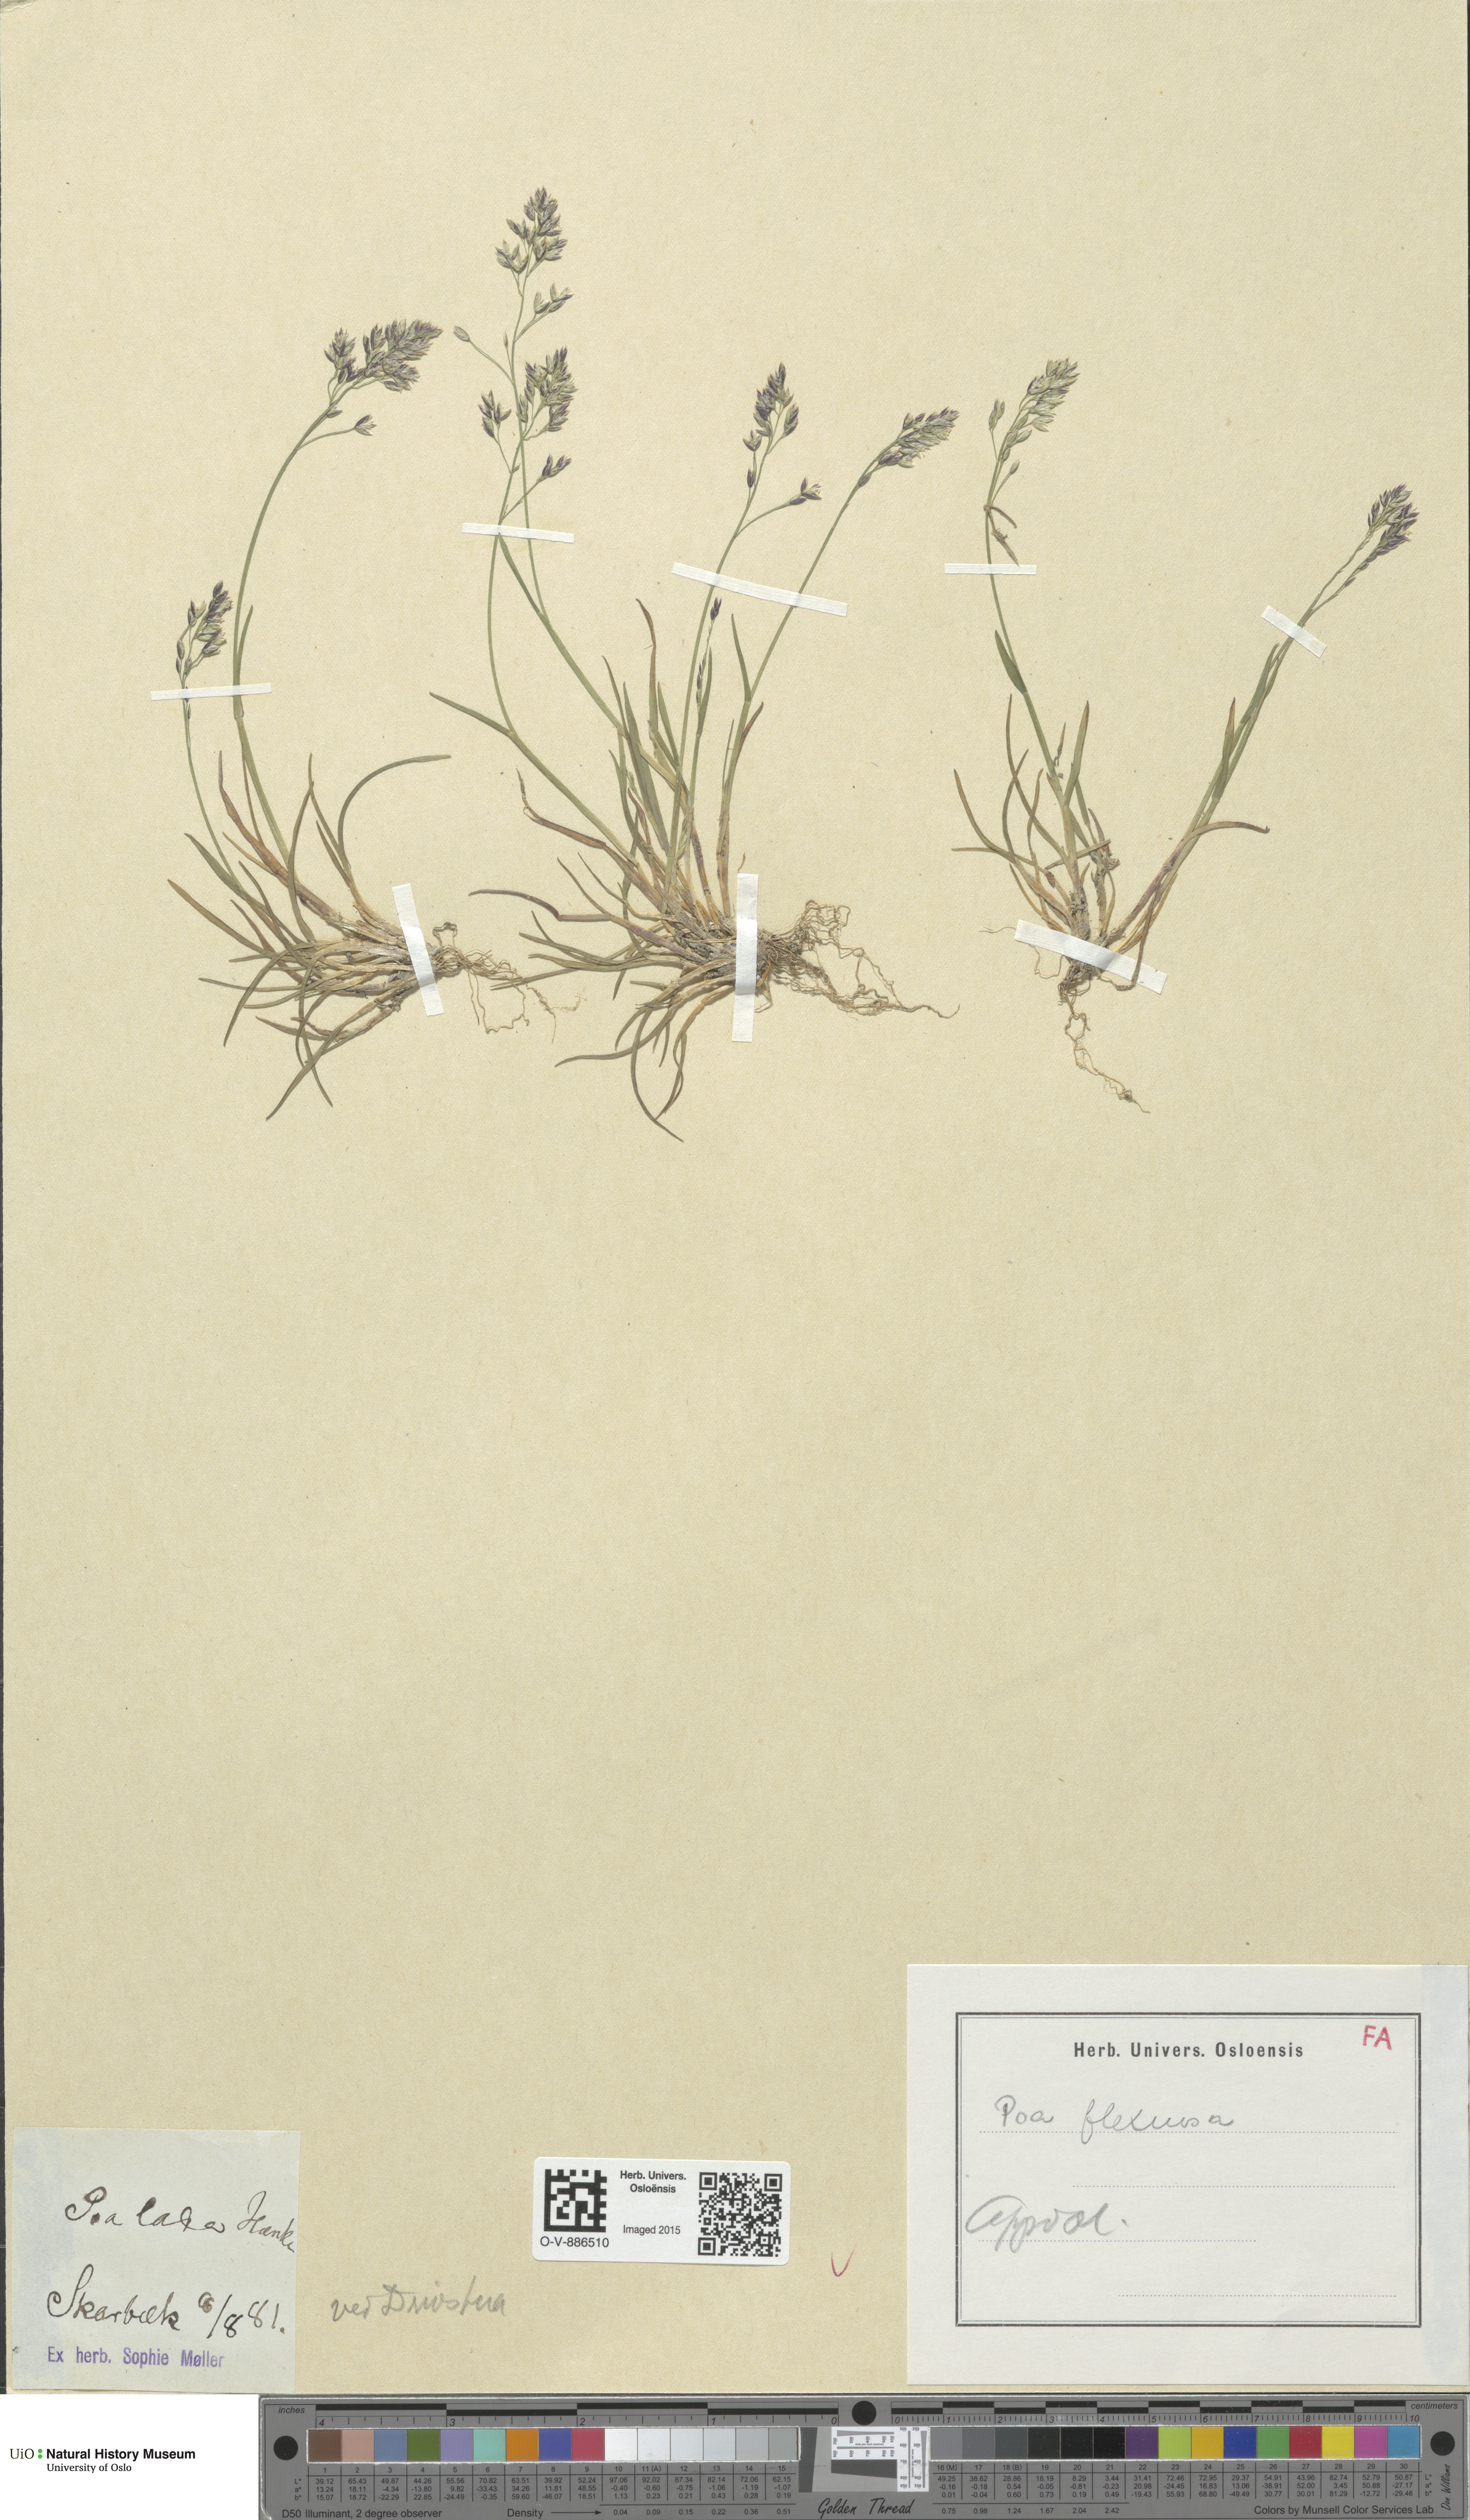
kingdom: Plantae
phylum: Tracheophyta
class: Liliopsida
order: Poales
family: Poaceae
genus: Poa
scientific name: Poa flexuosa
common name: Wavy meadow-grass
